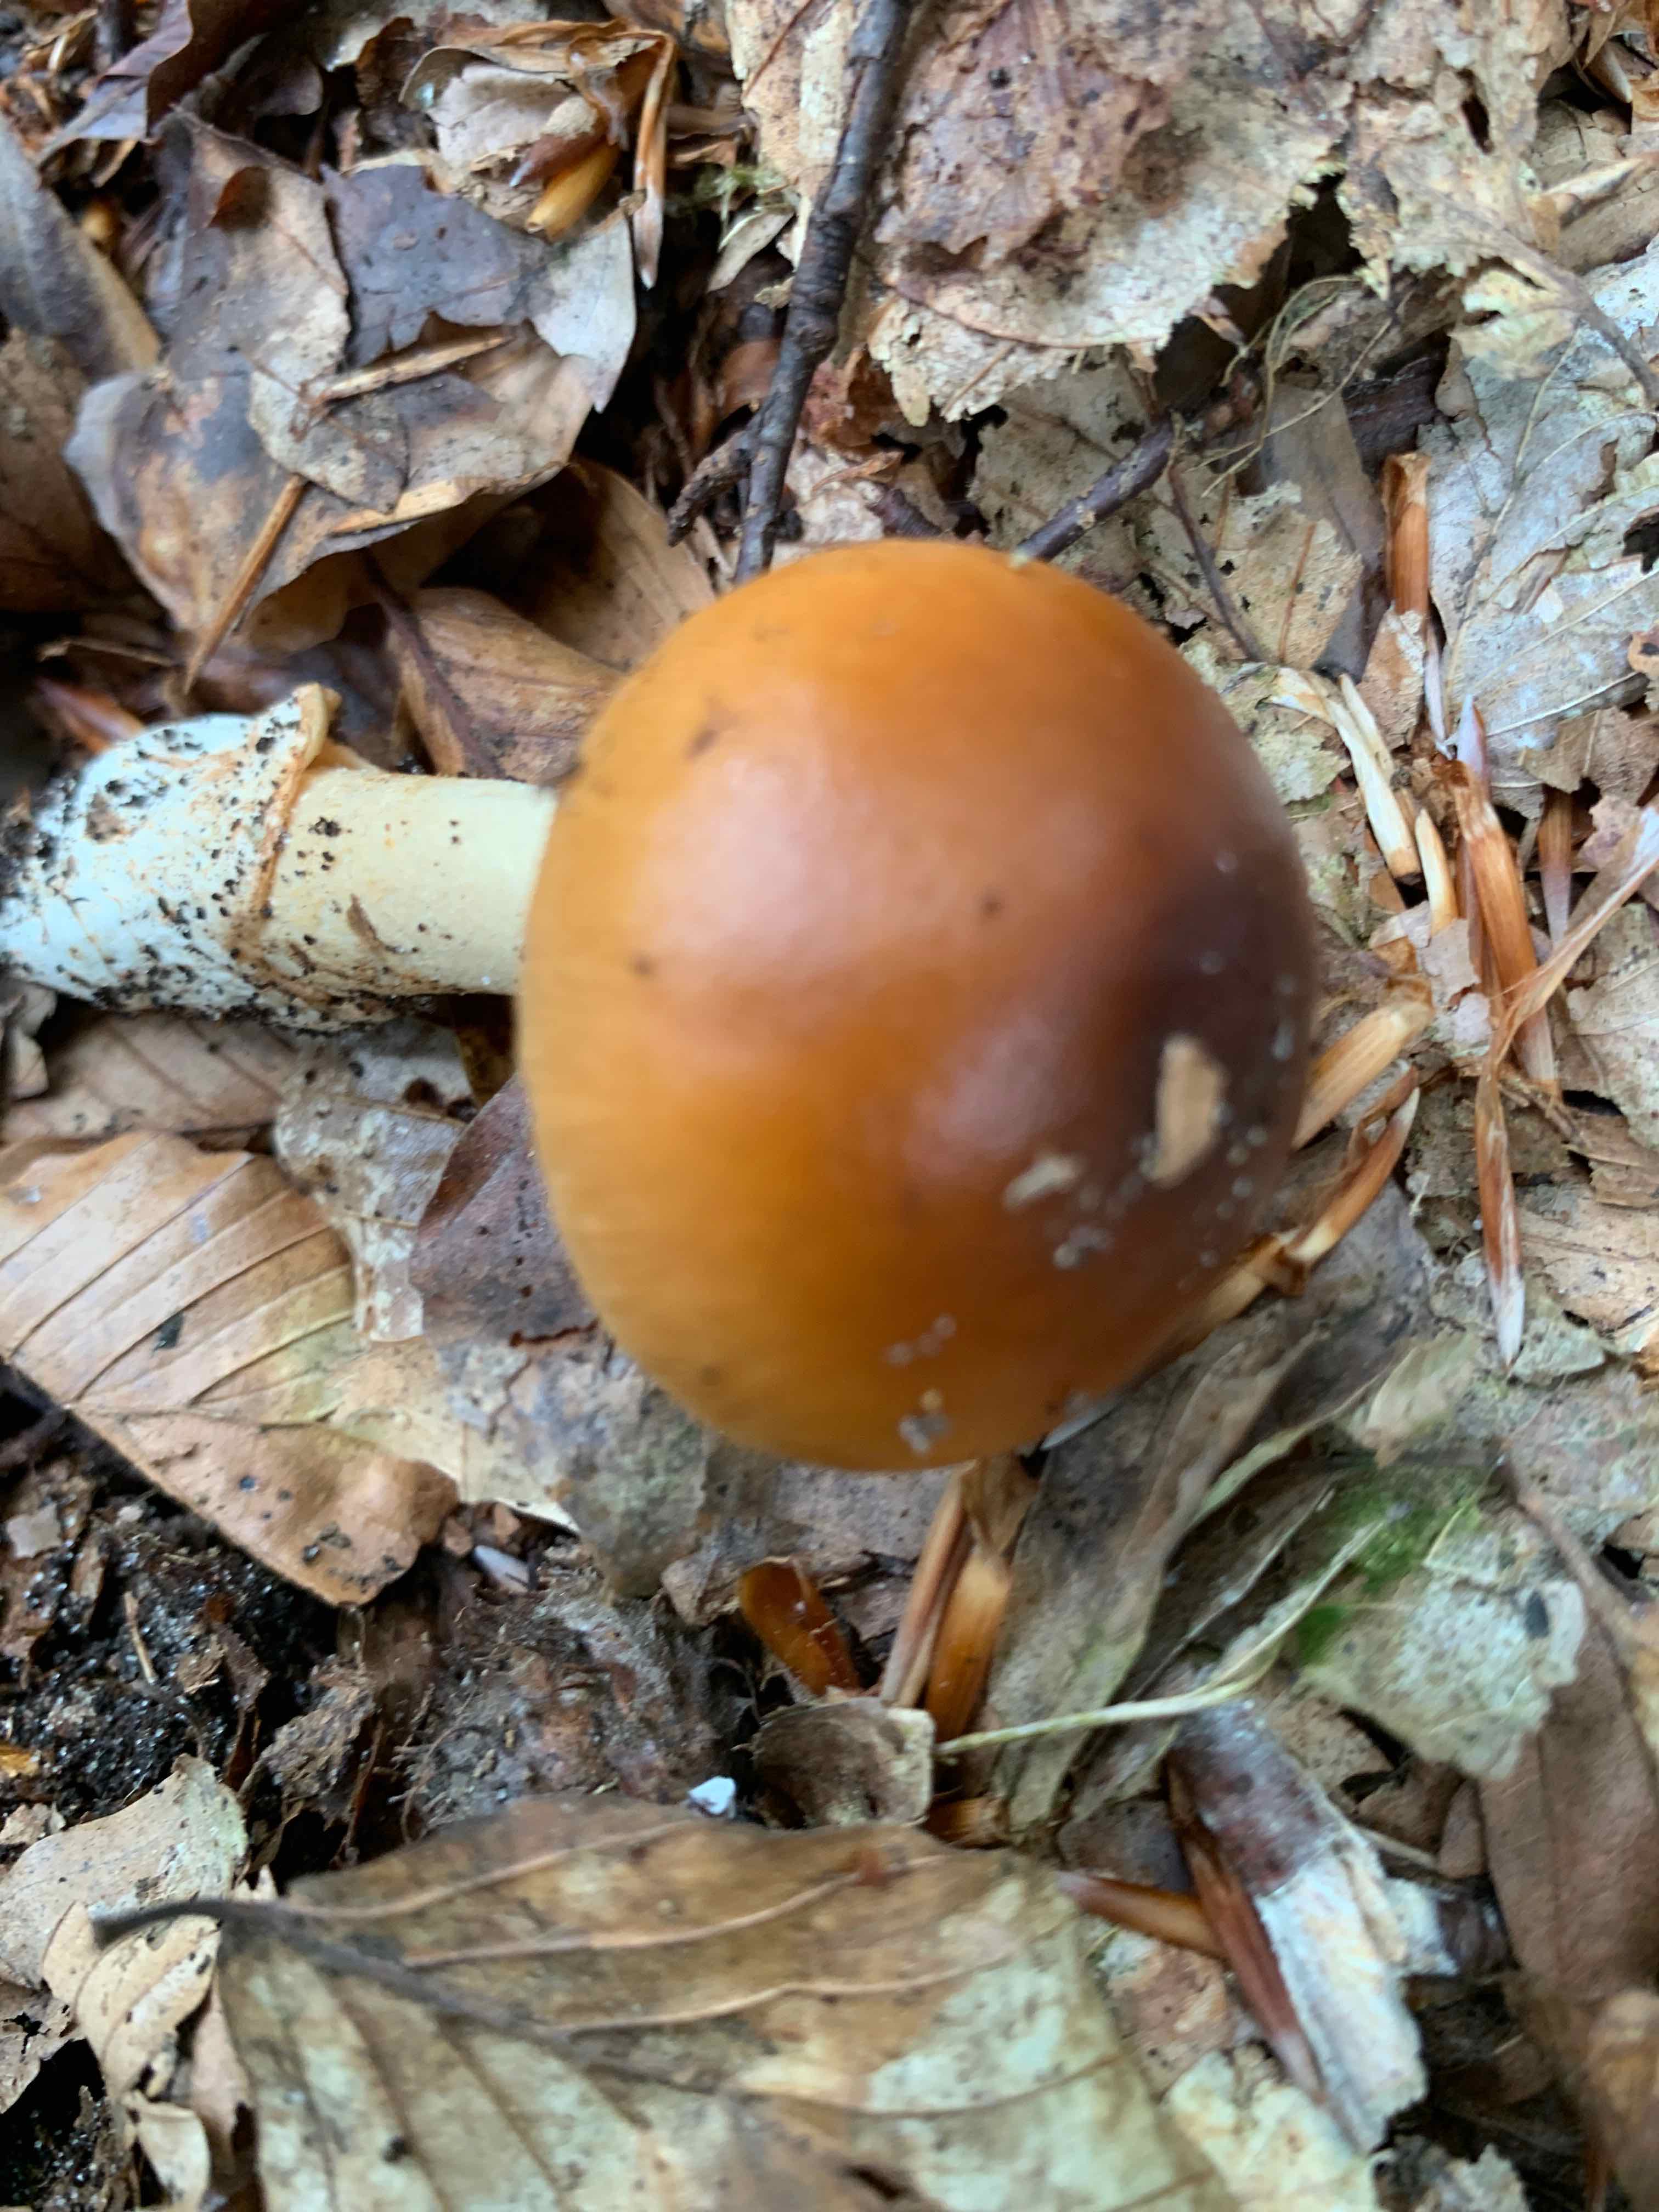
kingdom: Fungi
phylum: Basidiomycota
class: Agaricomycetes
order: Agaricales
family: Amanitaceae
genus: Amanita
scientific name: Amanita fulva
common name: brun kam-fluesvamp
